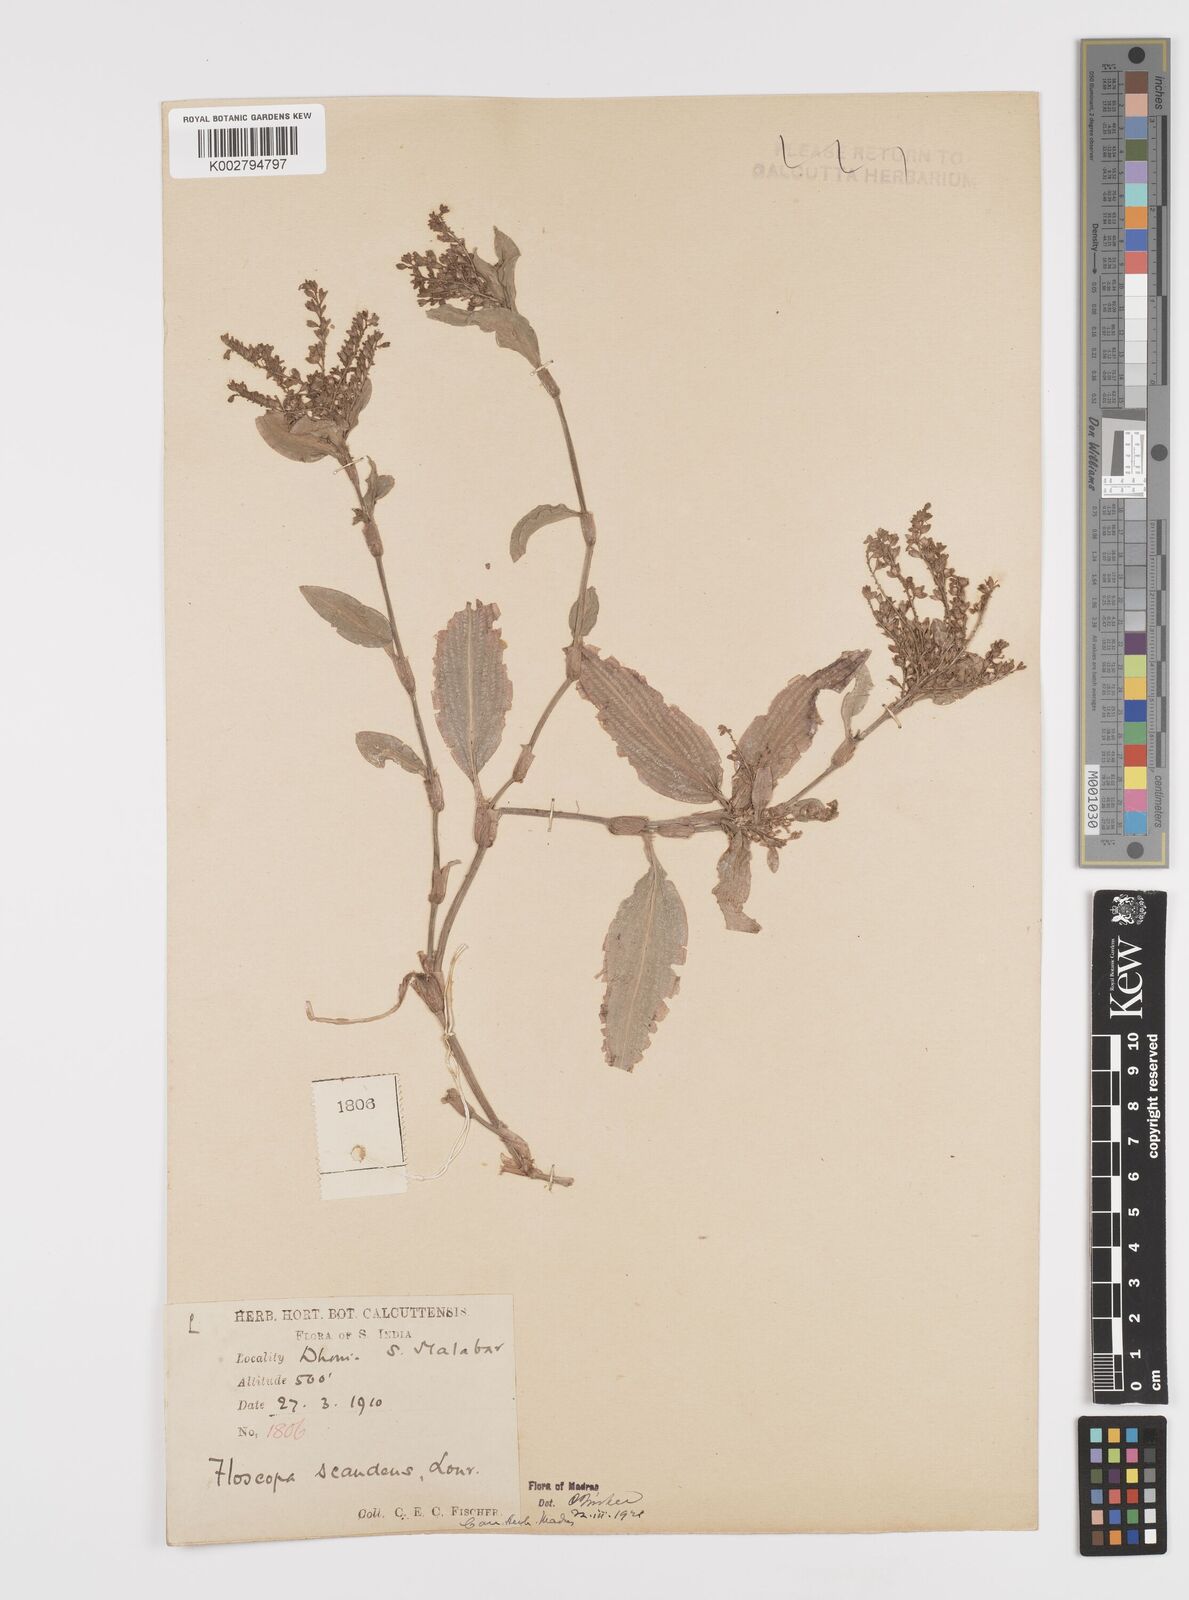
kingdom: Plantae
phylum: Tracheophyta
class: Liliopsida
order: Commelinales
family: Commelinaceae
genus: Floscopa
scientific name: Floscopa scandens
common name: Climbing flower cup
